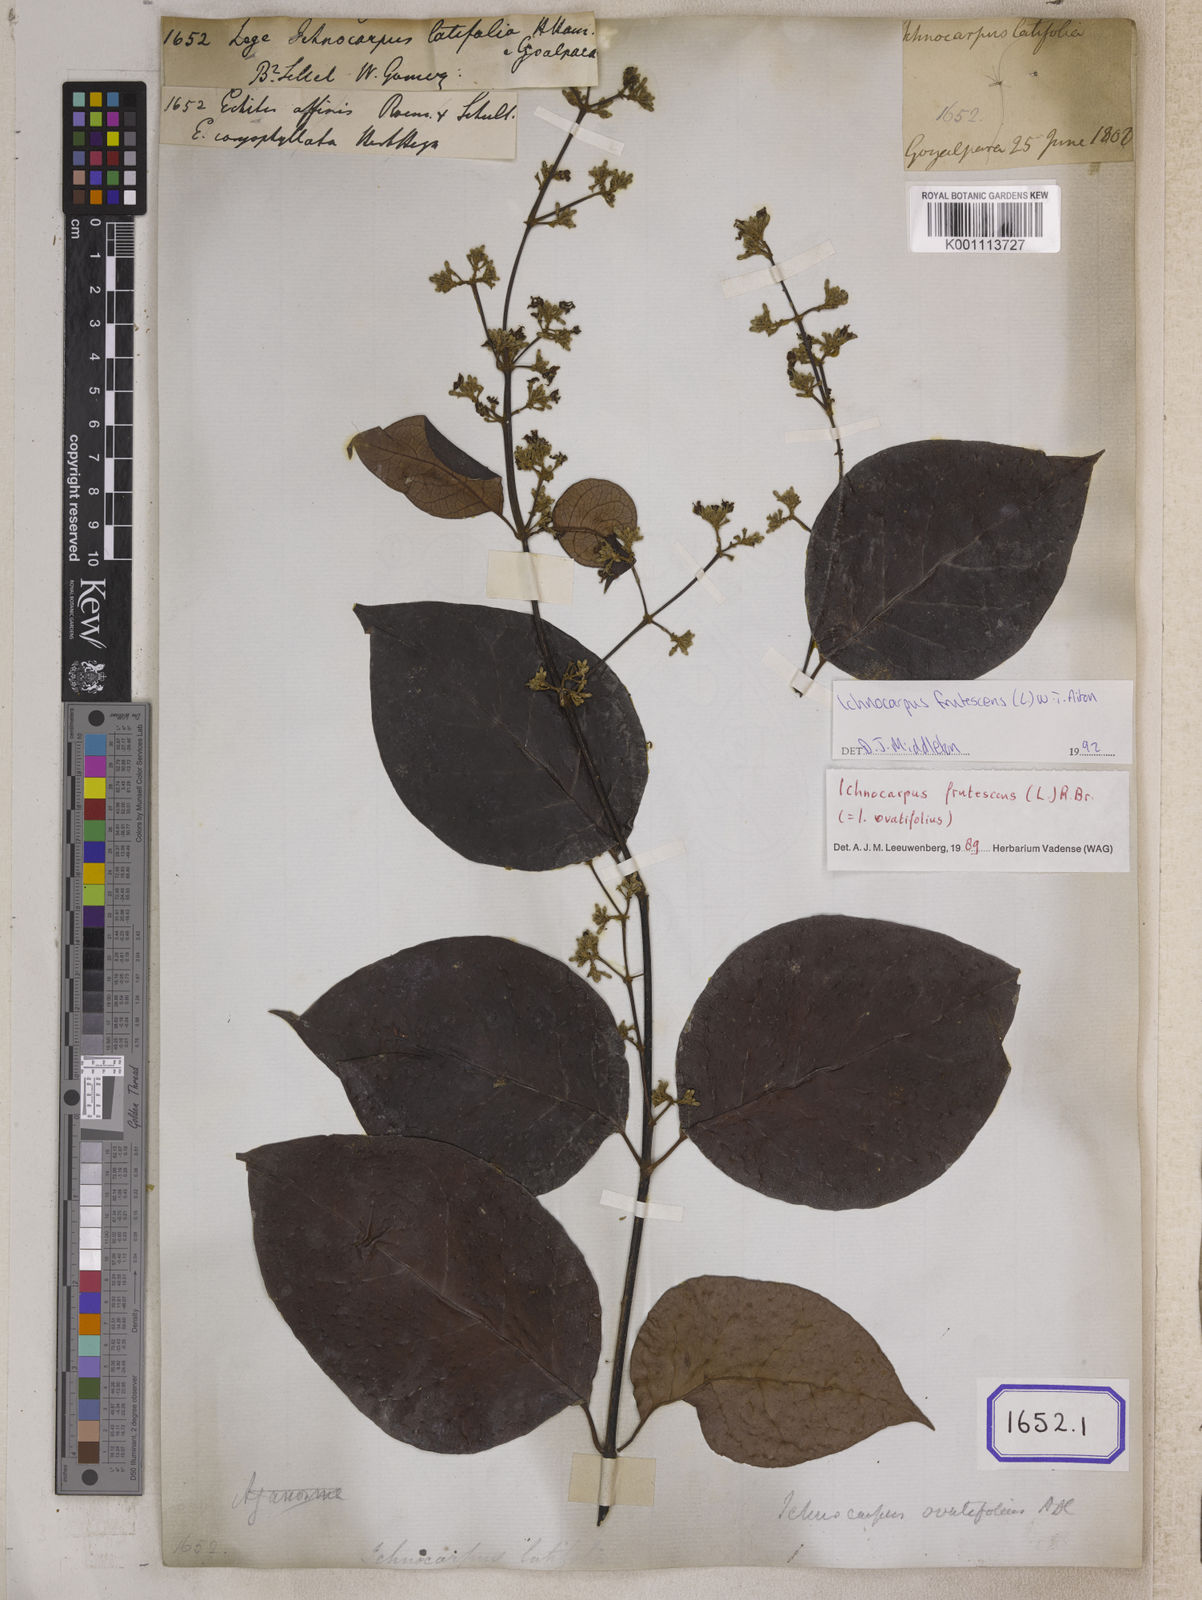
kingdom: Plantae
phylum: Tracheophyta
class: Magnoliopsida
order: Gentianales
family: Apocynaceae
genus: Ichnocarpus
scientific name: Ichnocarpus frutescens
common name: Ichnocarpus
